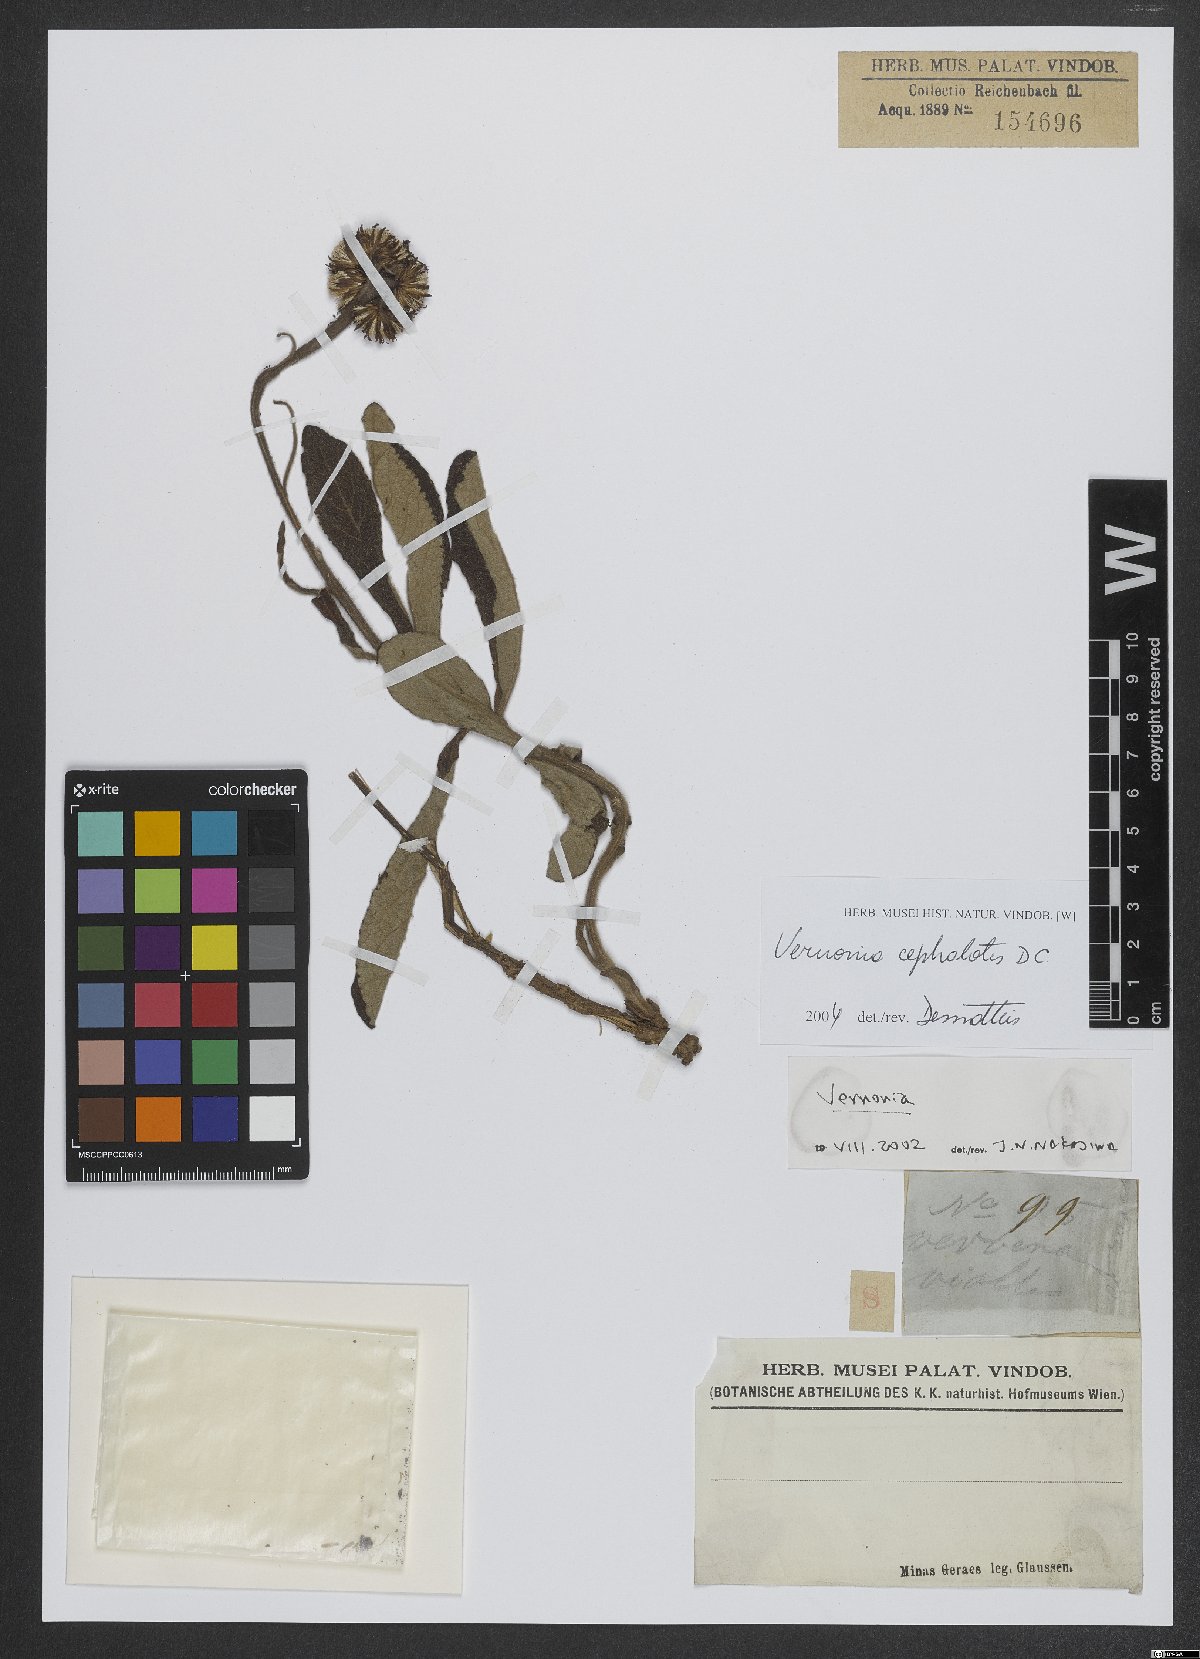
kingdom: Plantae
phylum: Tracheophyta
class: Magnoliopsida
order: Asterales
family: Asteraceae
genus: Lessingianthus
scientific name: Lessingianthus cephalotes
